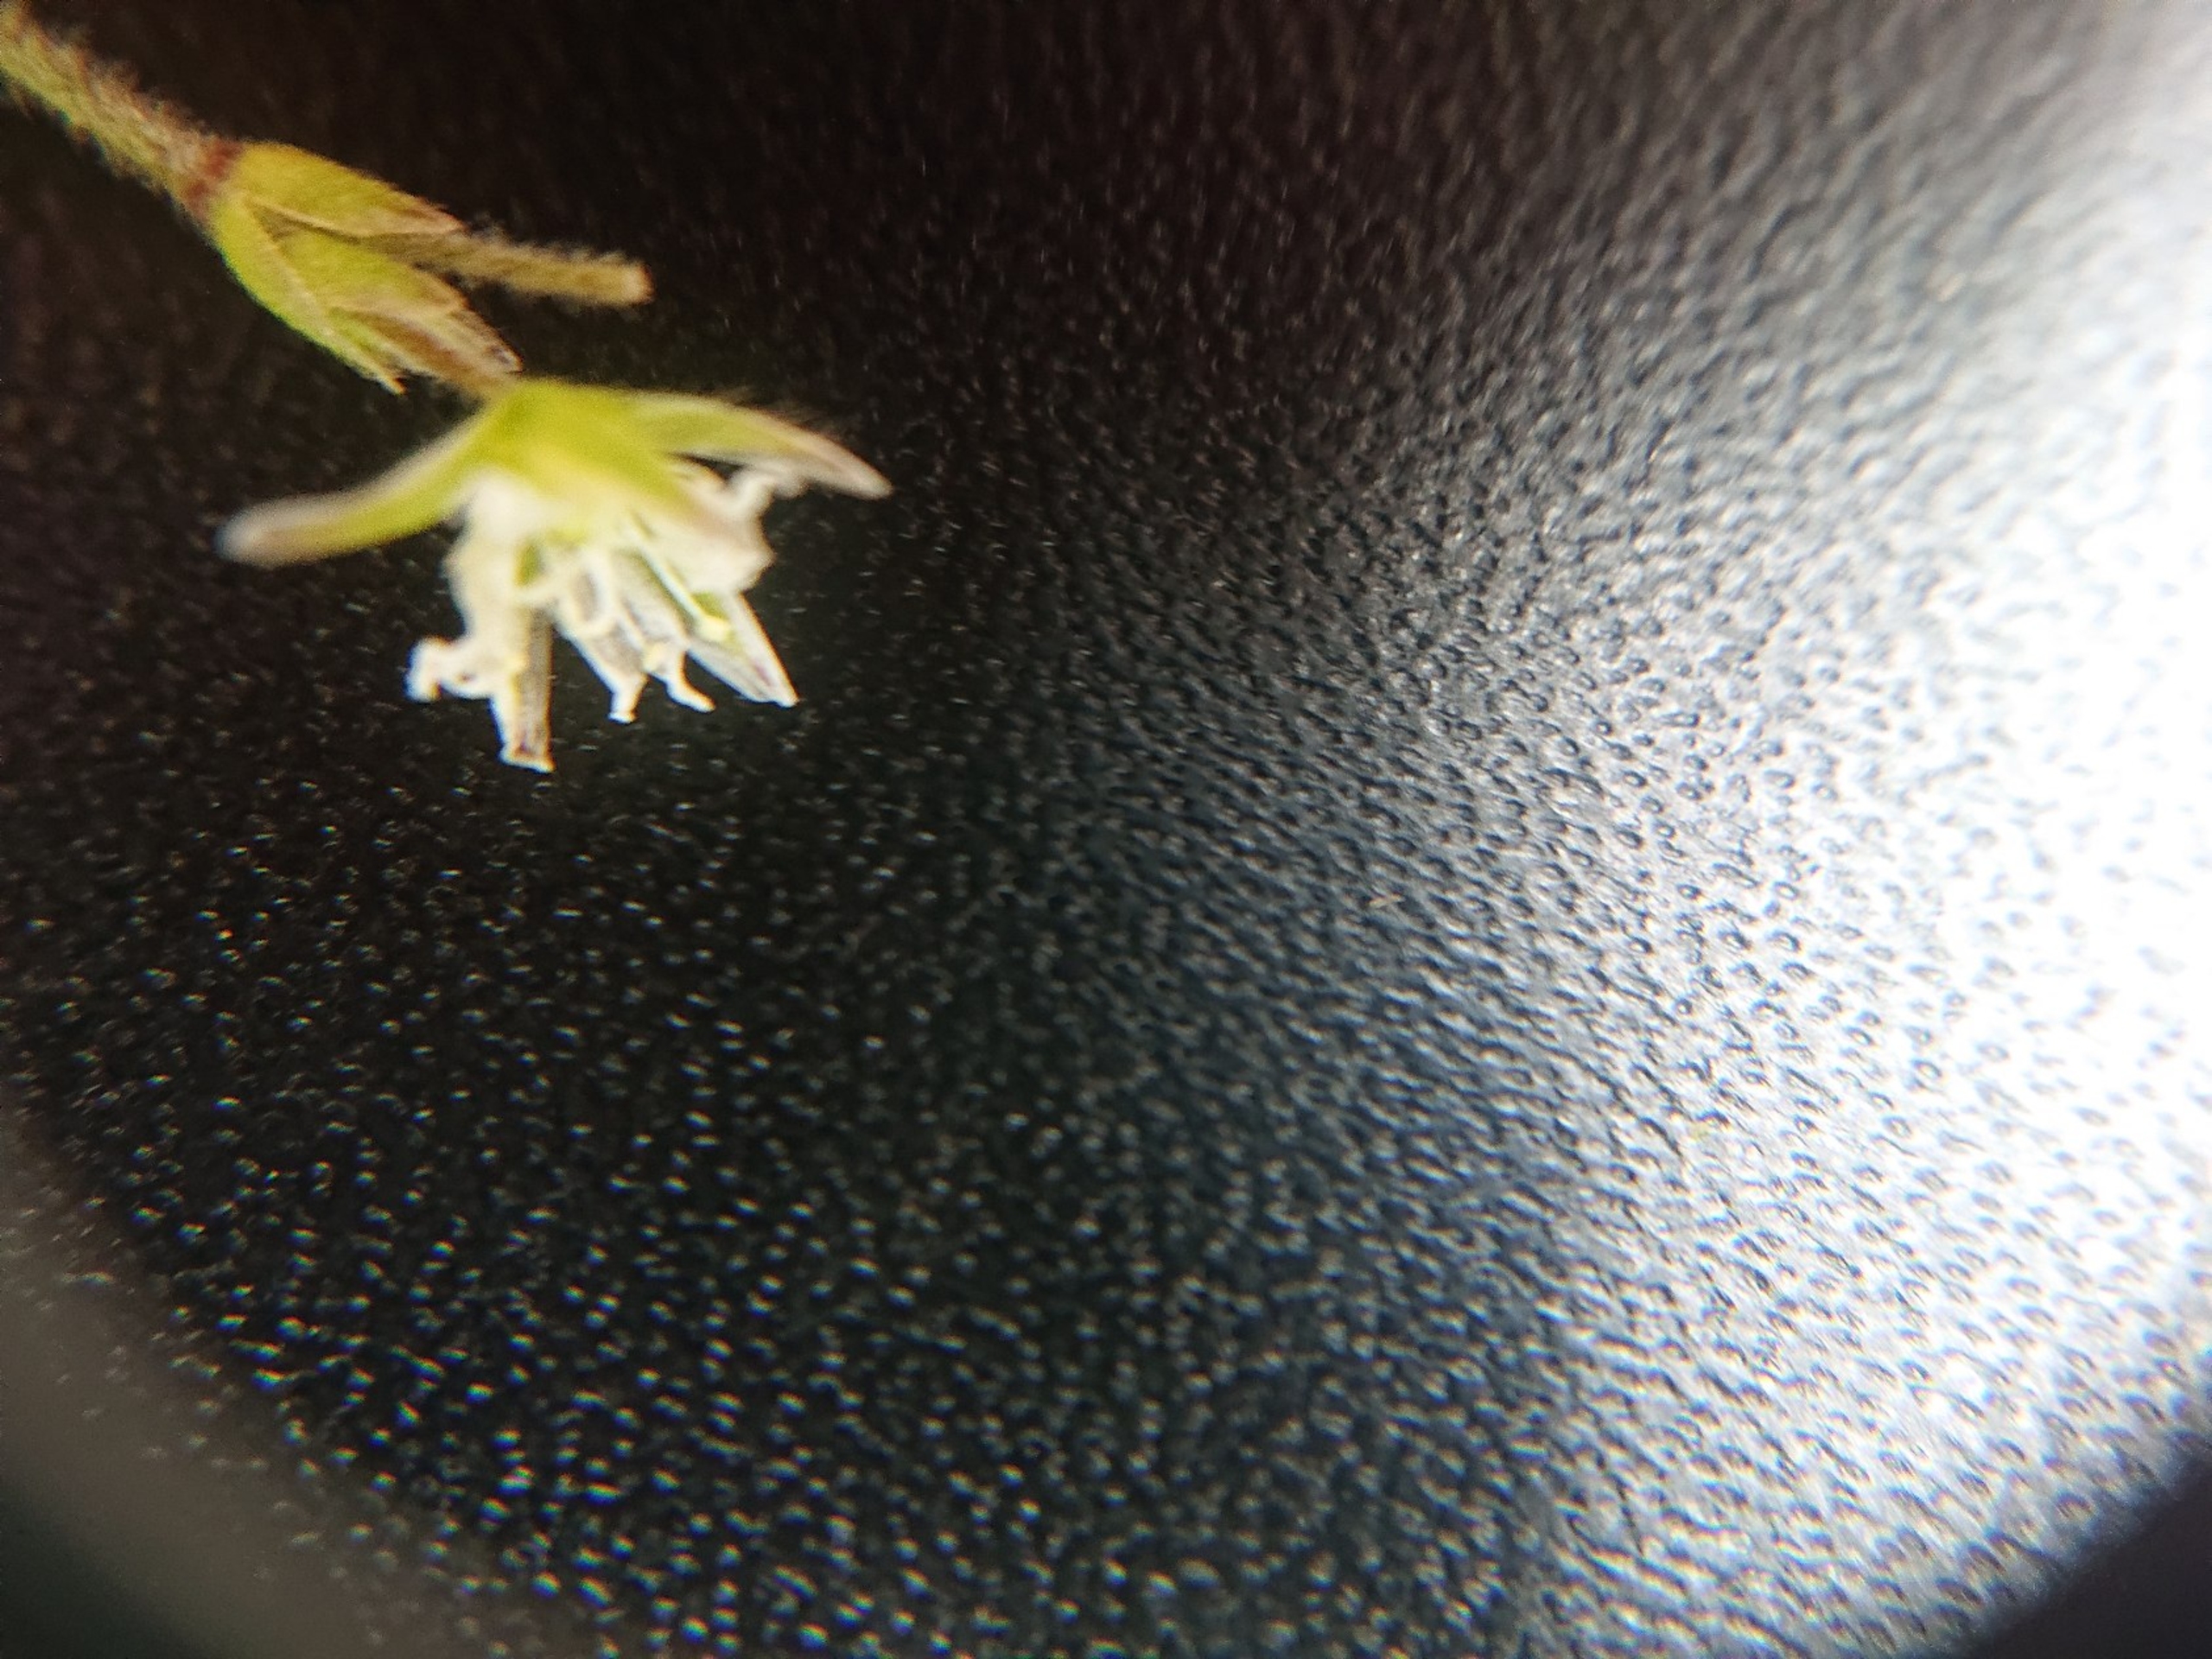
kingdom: Plantae
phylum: Tracheophyta
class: Magnoliopsida
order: Caryophyllales
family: Caryophyllaceae
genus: Cerastium
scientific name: Cerastium fontanum
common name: Almindelig hønsetarm
